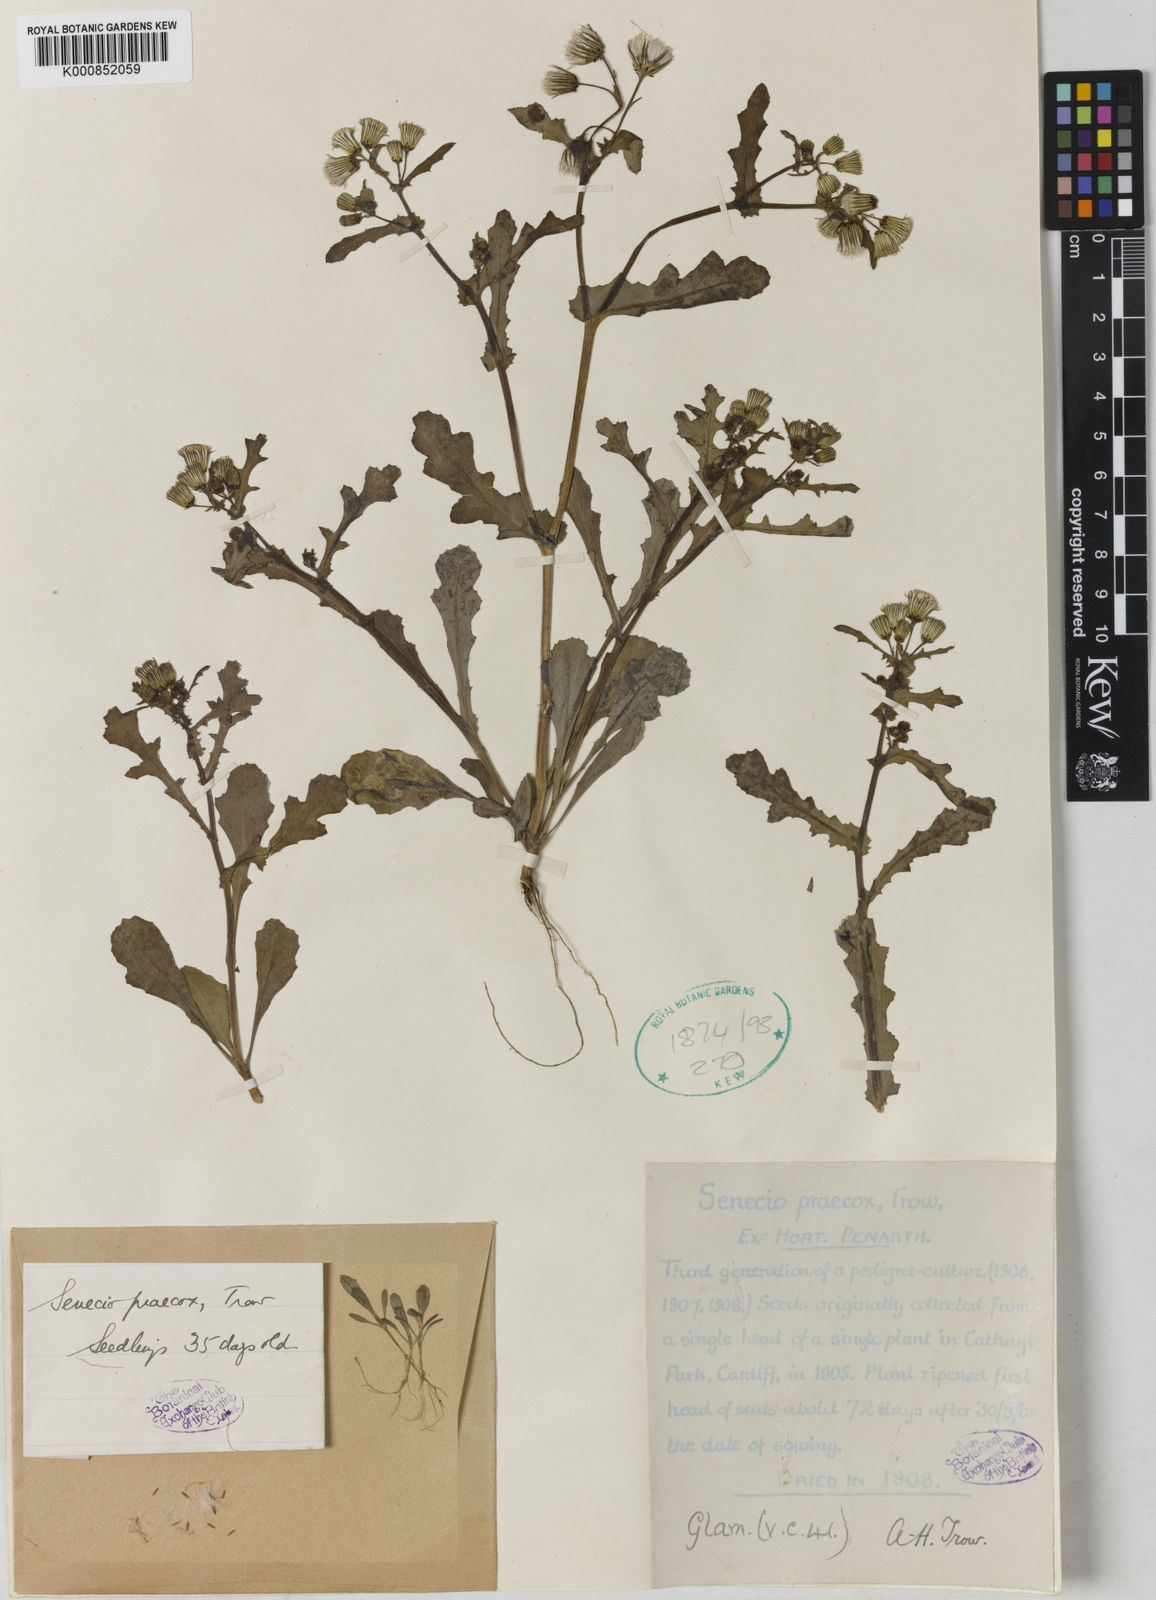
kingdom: Plantae
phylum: Tracheophyta
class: Magnoliopsida
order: Asterales
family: Asteraceae
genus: Senecio
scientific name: Senecio vulgaris
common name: Old-man-in-the-spring
